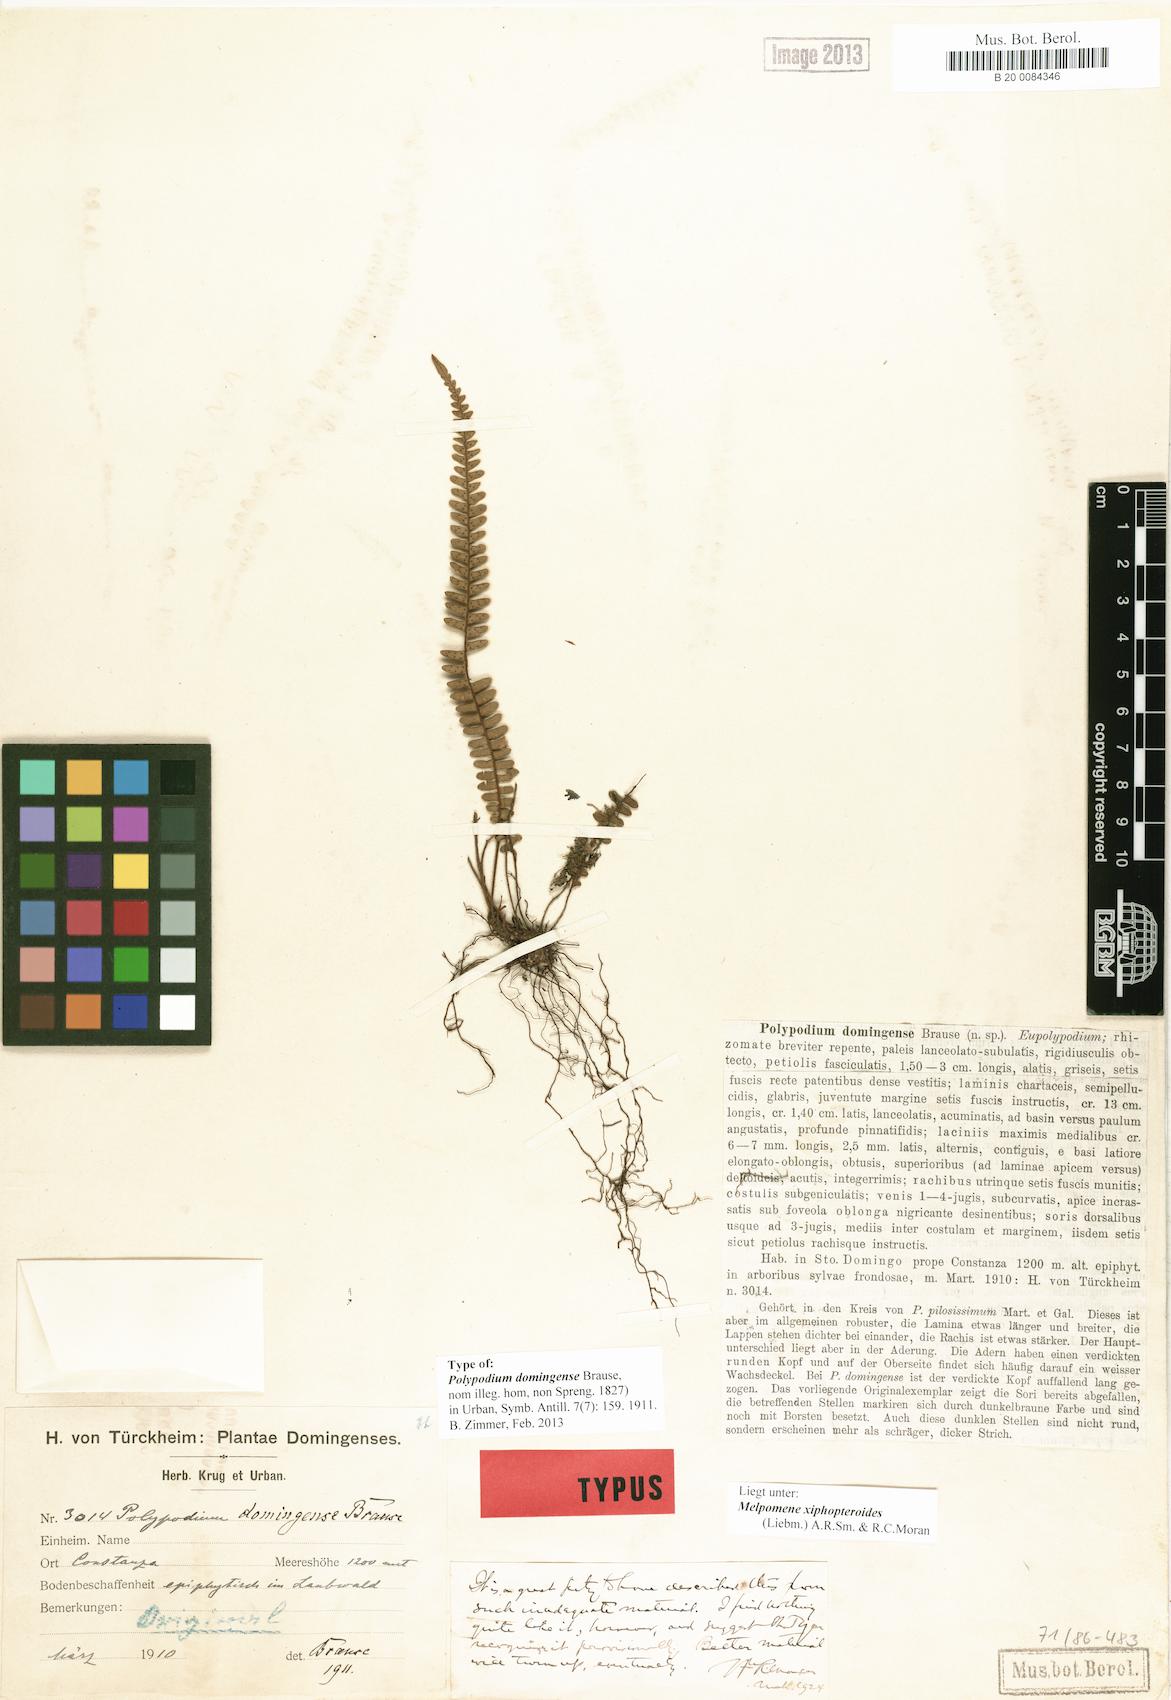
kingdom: Plantae
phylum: Tracheophyta
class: Polypodiopsida
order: Polypodiales
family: Polypodiaceae
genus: Melpomene
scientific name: Melpomene xiphopteroides
